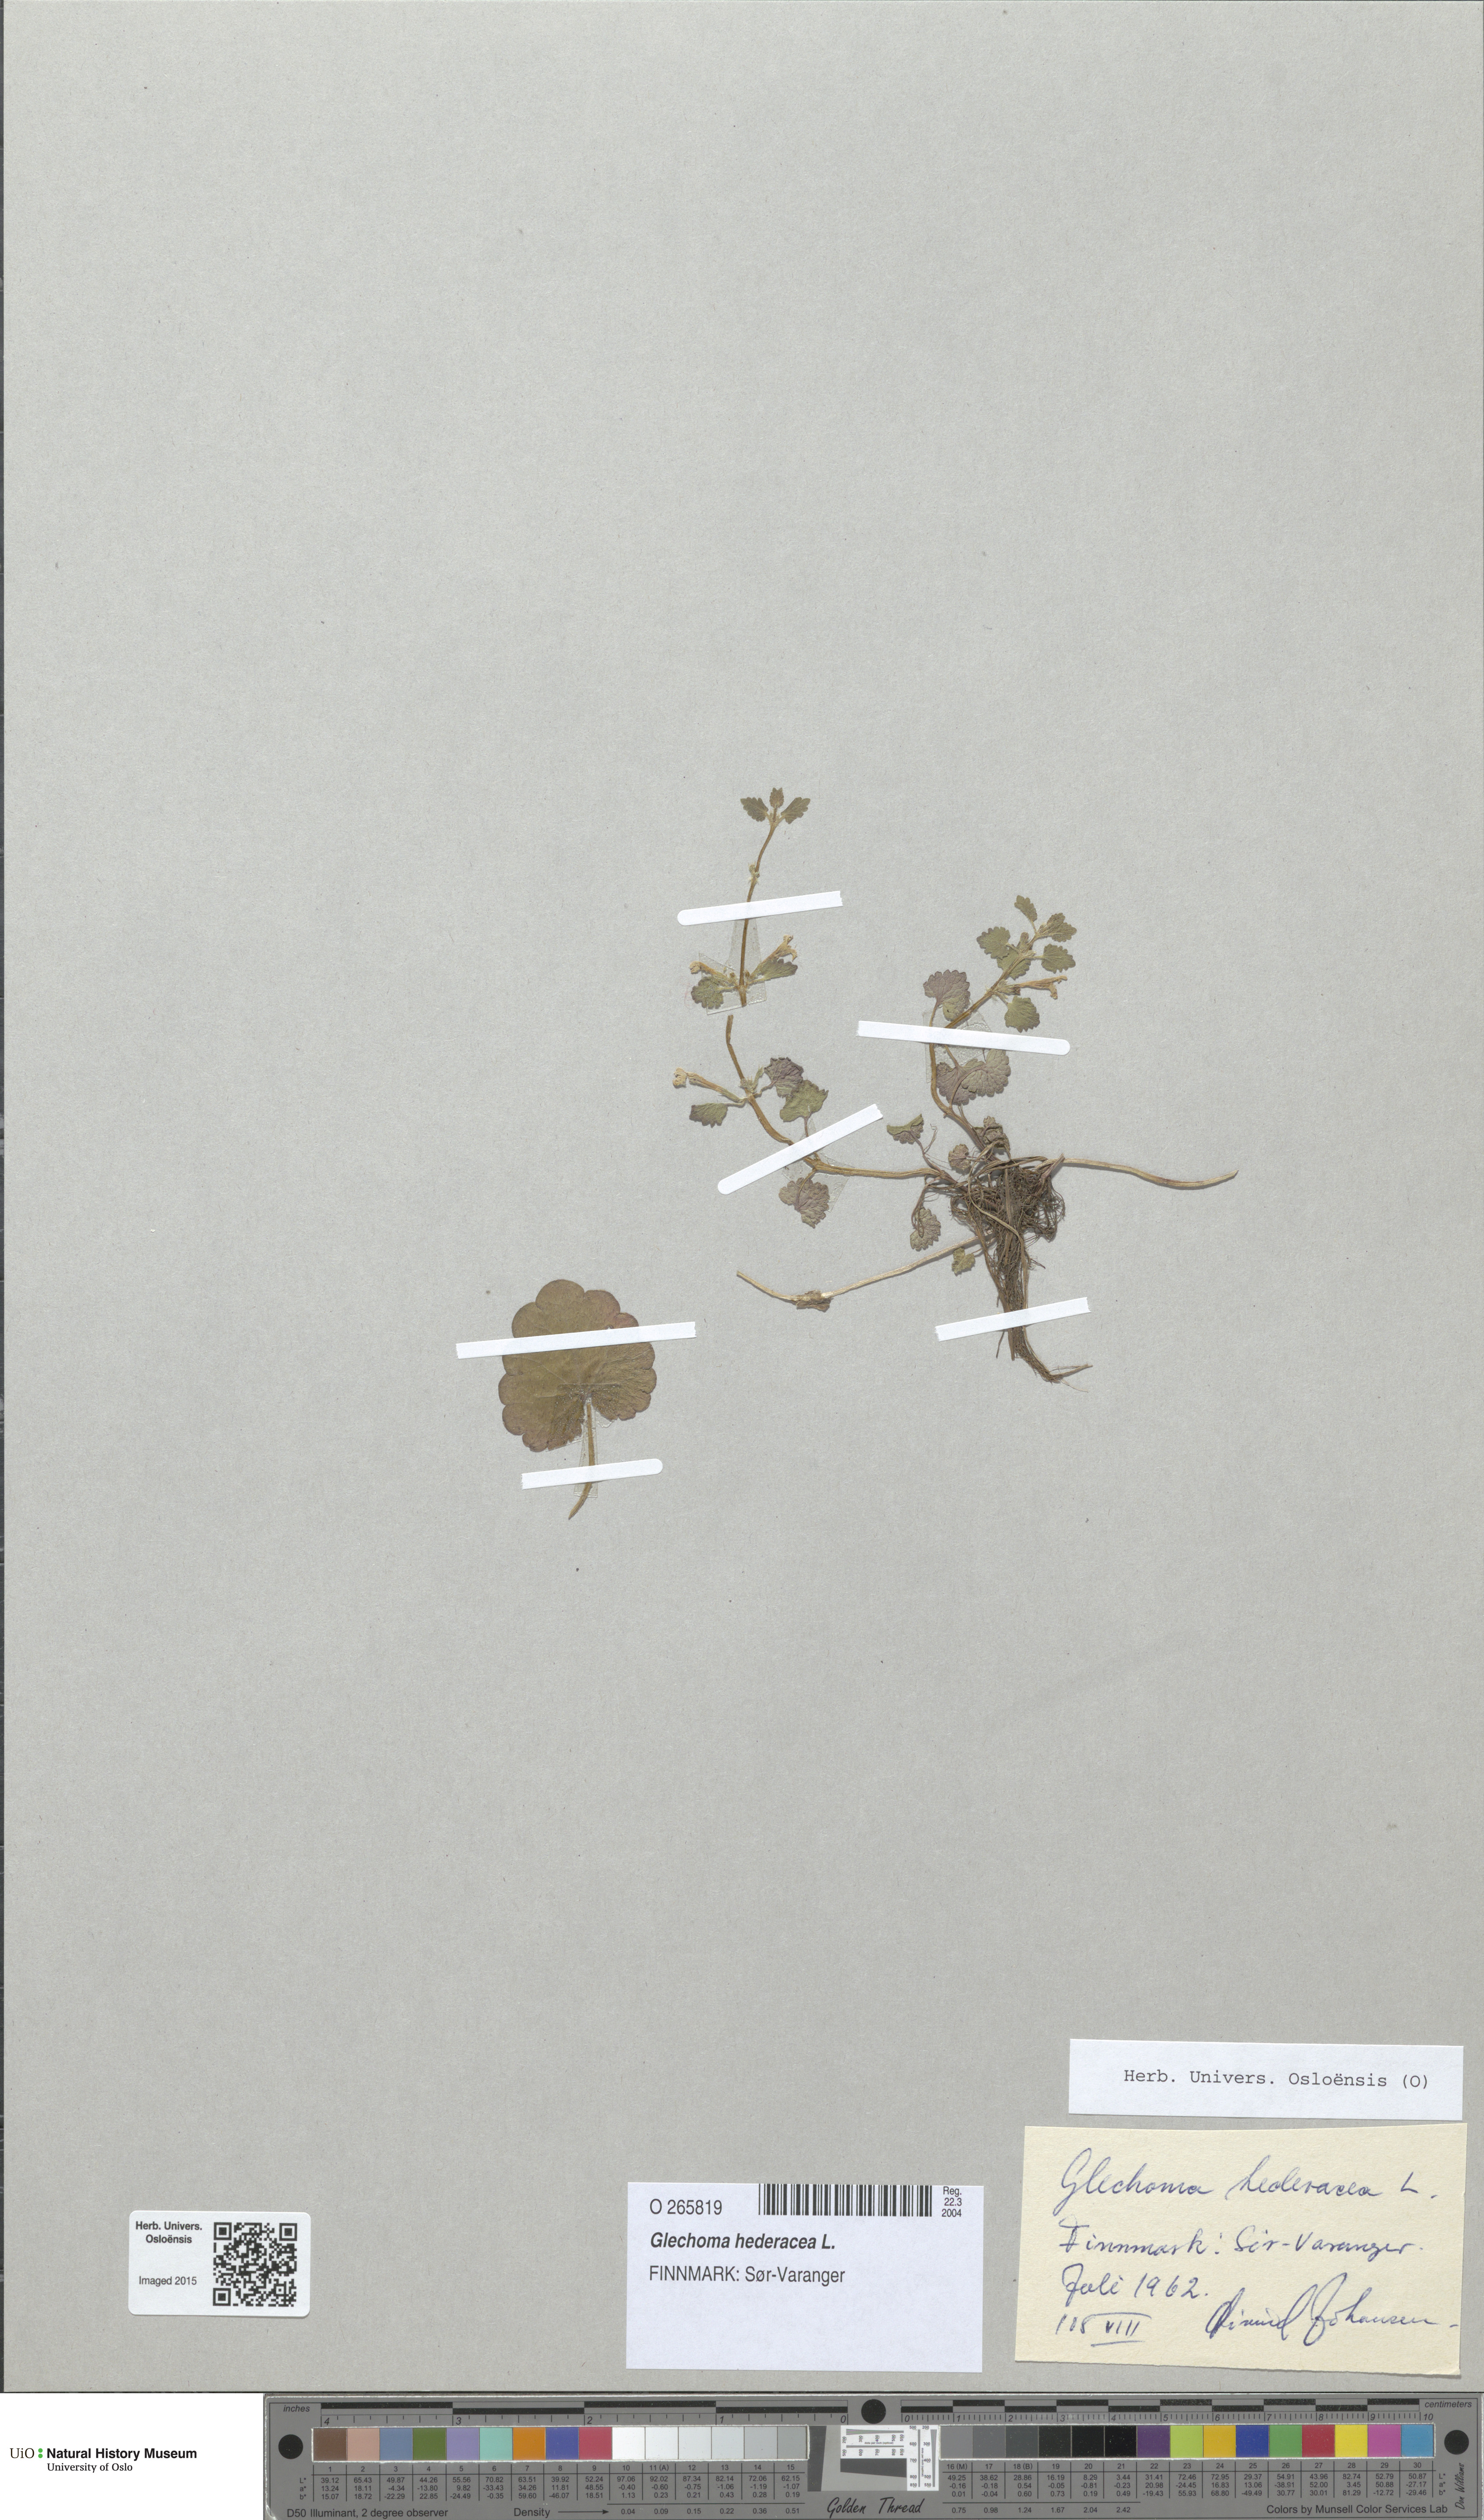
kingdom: Plantae
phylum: Tracheophyta
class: Magnoliopsida
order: Lamiales
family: Lamiaceae
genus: Glechoma
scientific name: Glechoma hederacea
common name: Ground ivy
